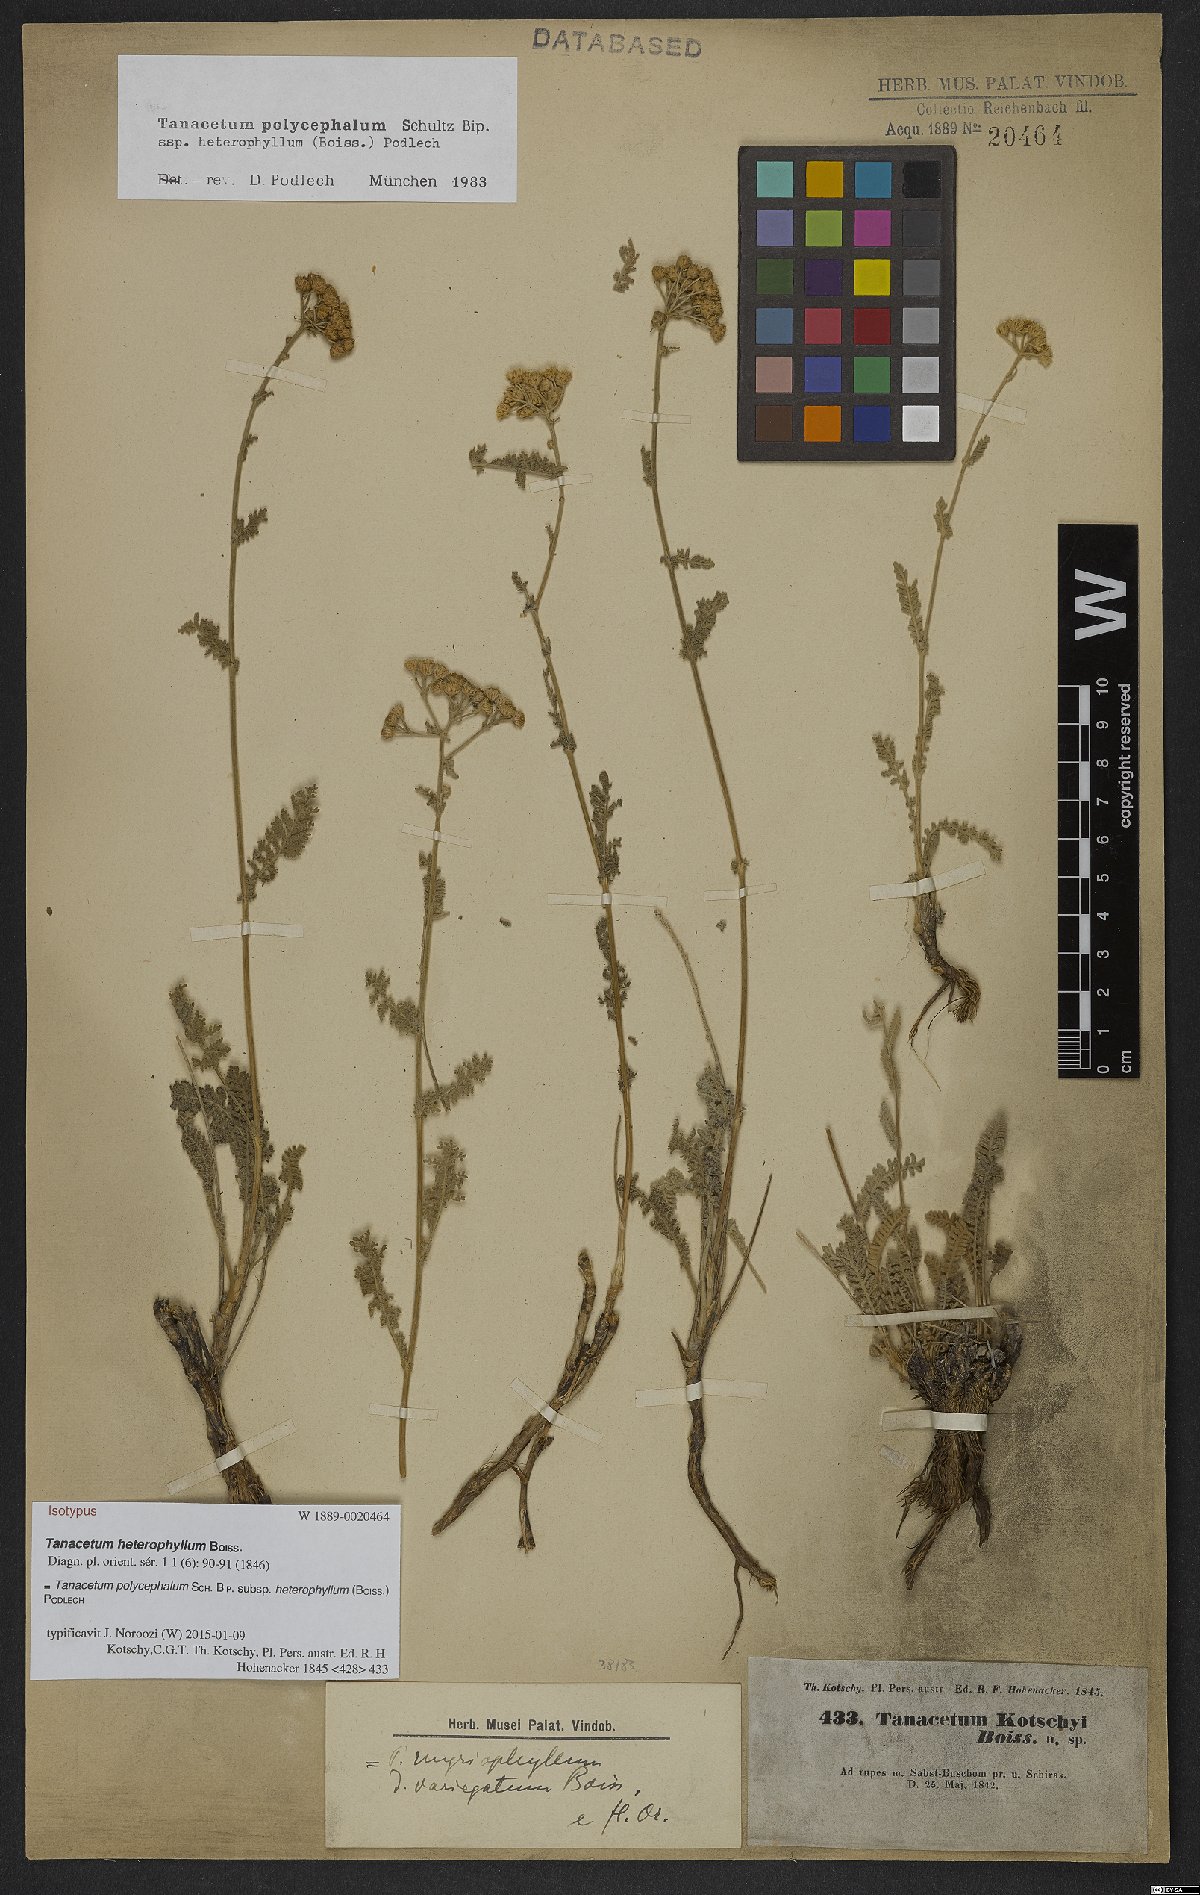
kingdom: Plantae
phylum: Tracheophyta
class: Magnoliopsida
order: Asterales
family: Asteraceae
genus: Tanacetum
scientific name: Tanacetum polycephalum
